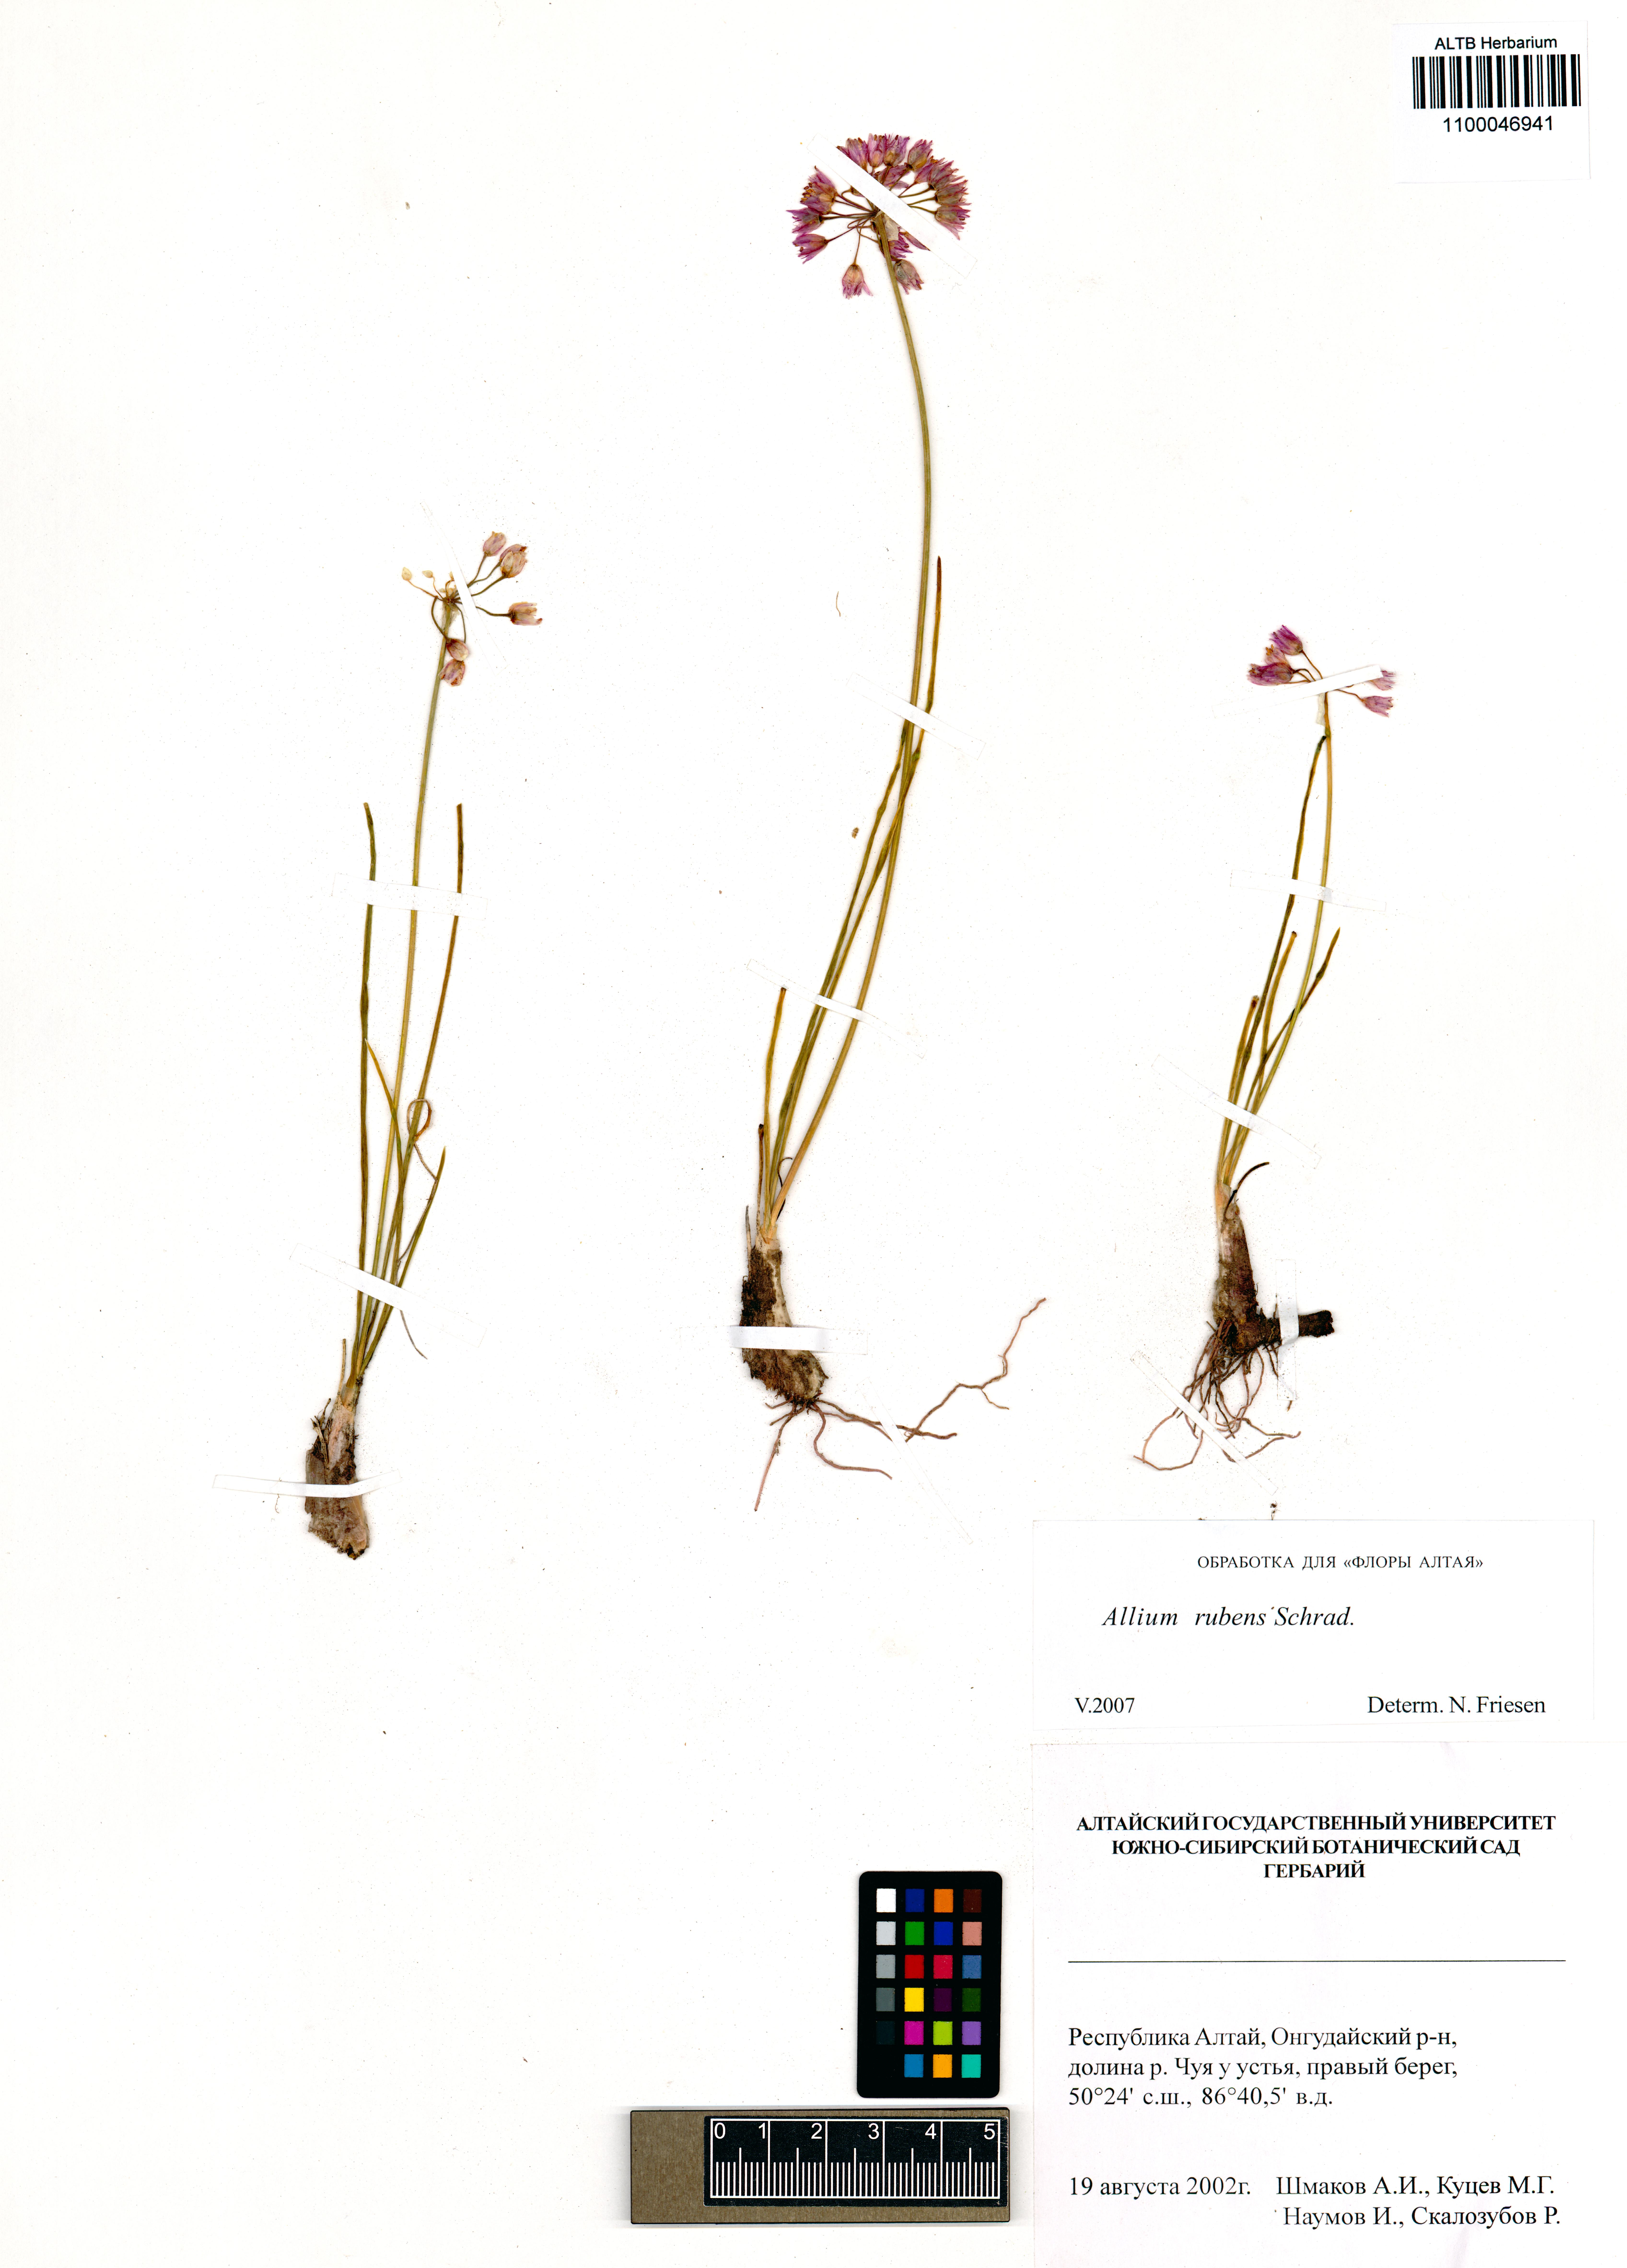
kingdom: Plantae
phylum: Tracheophyta
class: Liliopsida
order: Asparagales
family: Amaryllidaceae
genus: Allium
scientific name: Allium rubens
